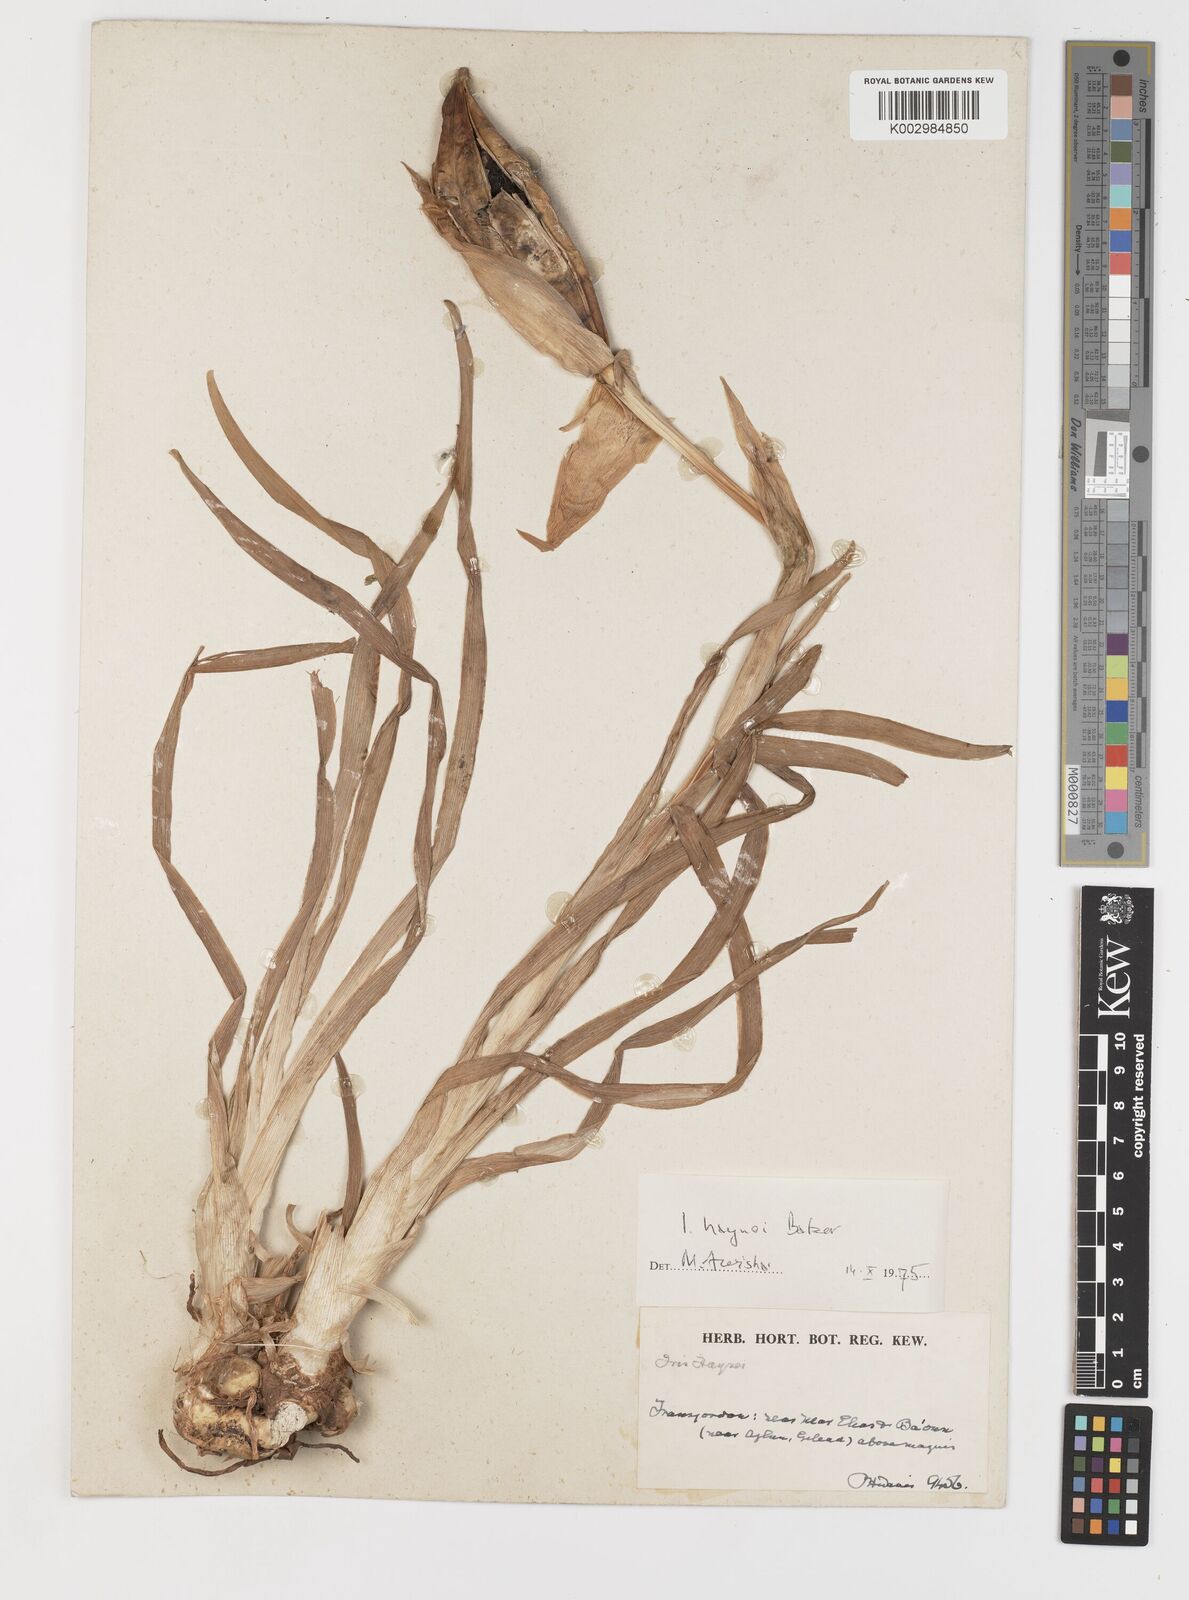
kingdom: Plantae
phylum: Tracheophyta
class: Liliopsida
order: Asparagales
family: Iridaceae
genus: Iris
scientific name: Iris atrofusca
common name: Asshafa iris
